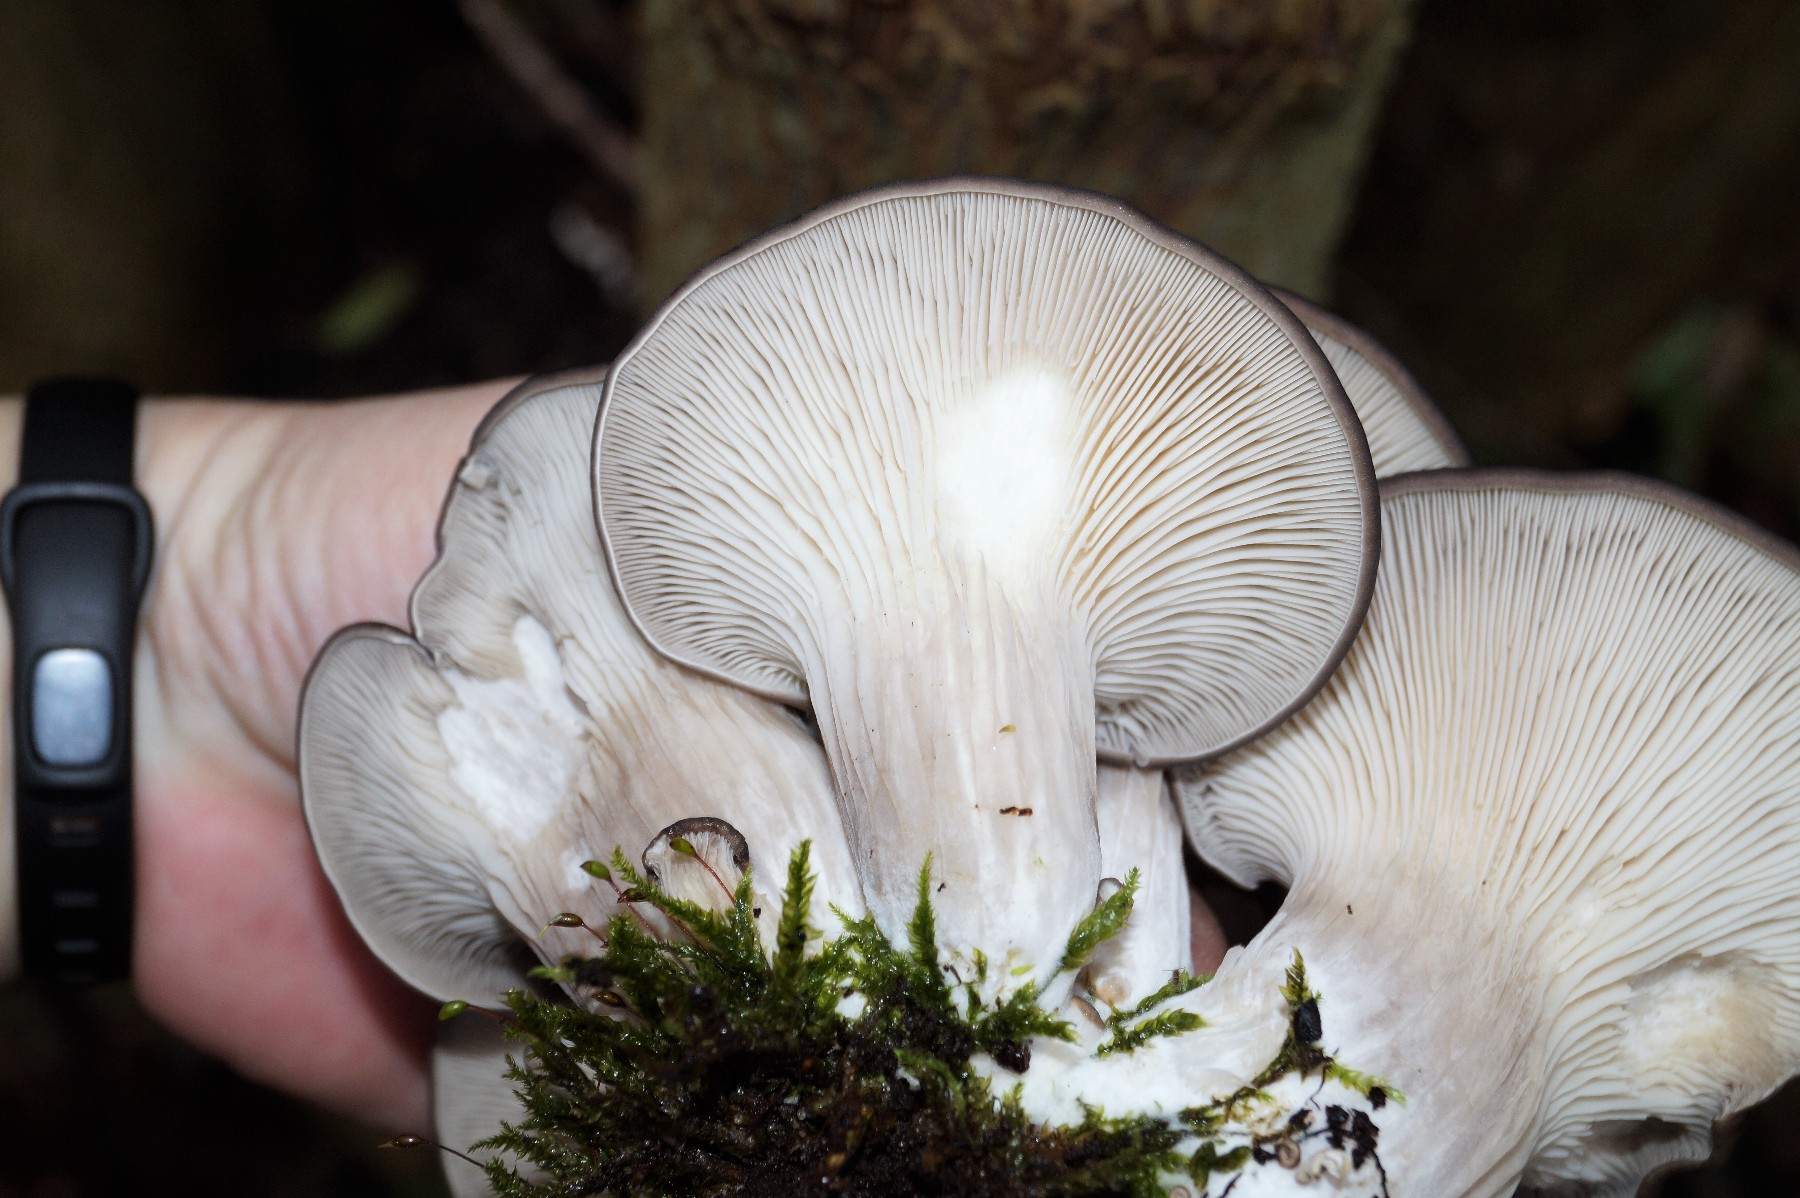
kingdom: Fungi
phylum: Basidiomycota
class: Agaricomycetes
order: Agaricales
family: Pleurotaceae
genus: Pleurotus
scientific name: Pleurotus ostreatus
